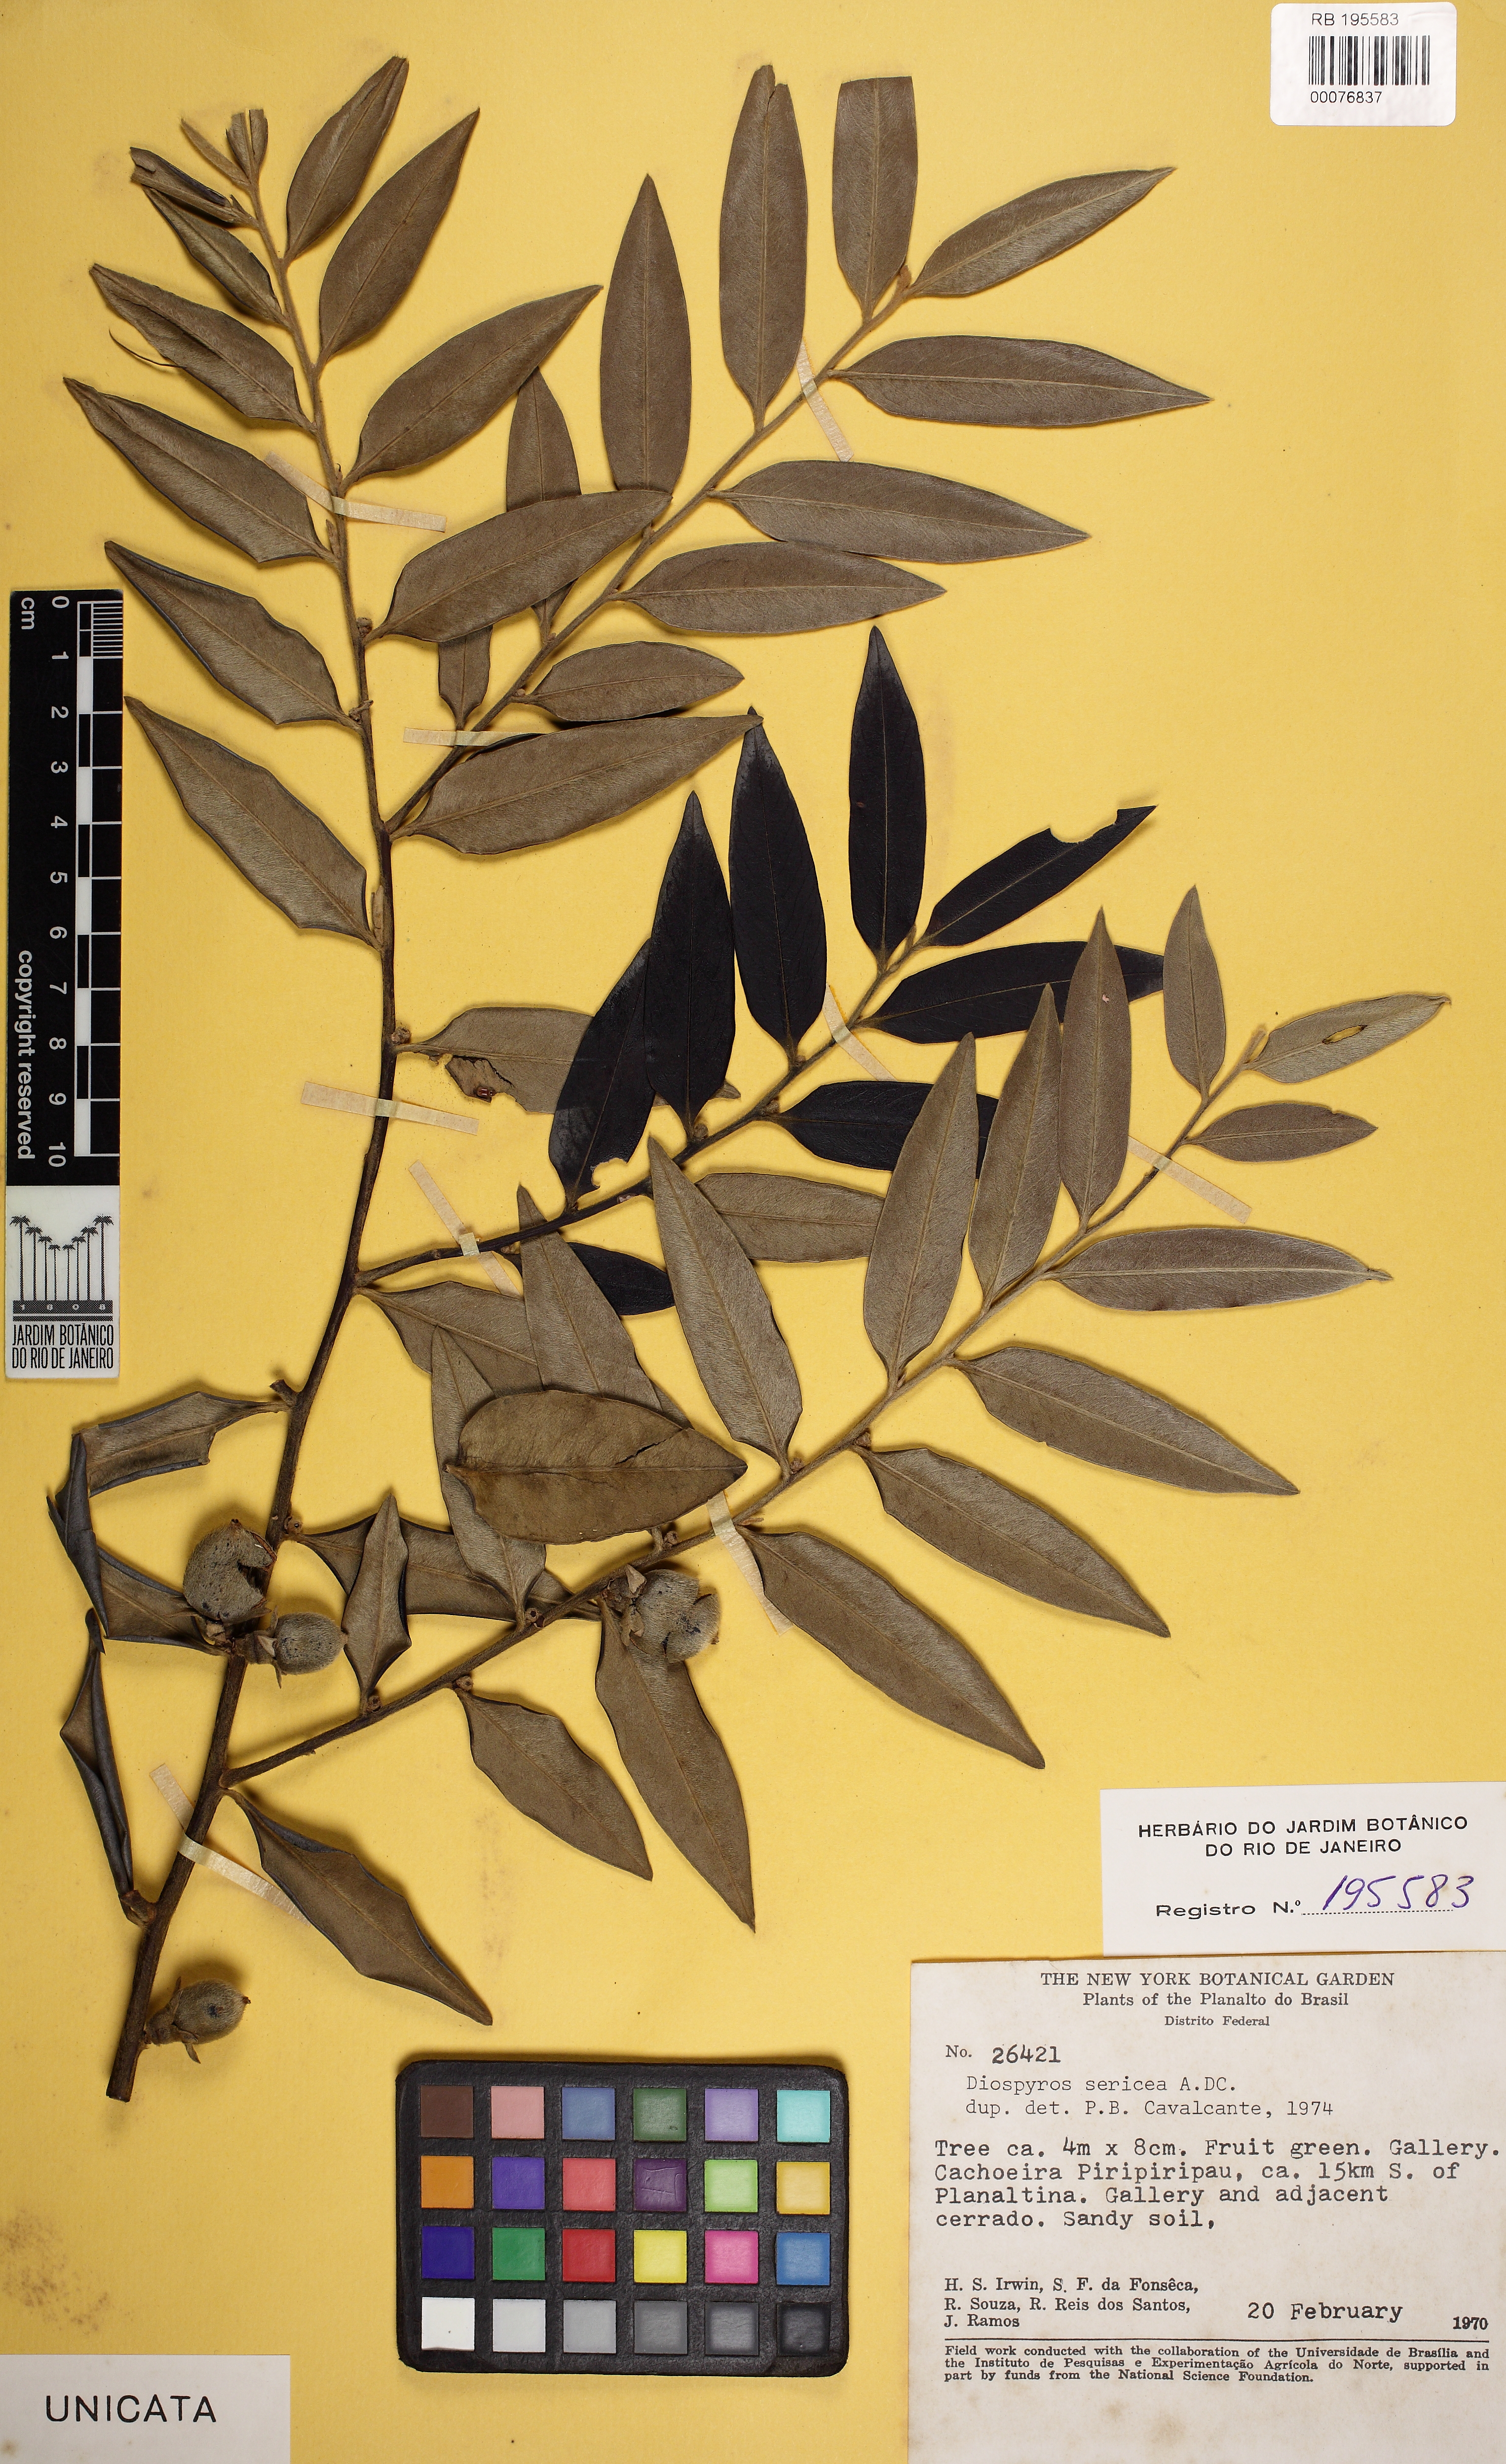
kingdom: Plantae
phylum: Tracheophyta
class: Magnoliopsida
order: Ericales
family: Ebenaceae
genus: Diospyros
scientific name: Diospyros sericea
